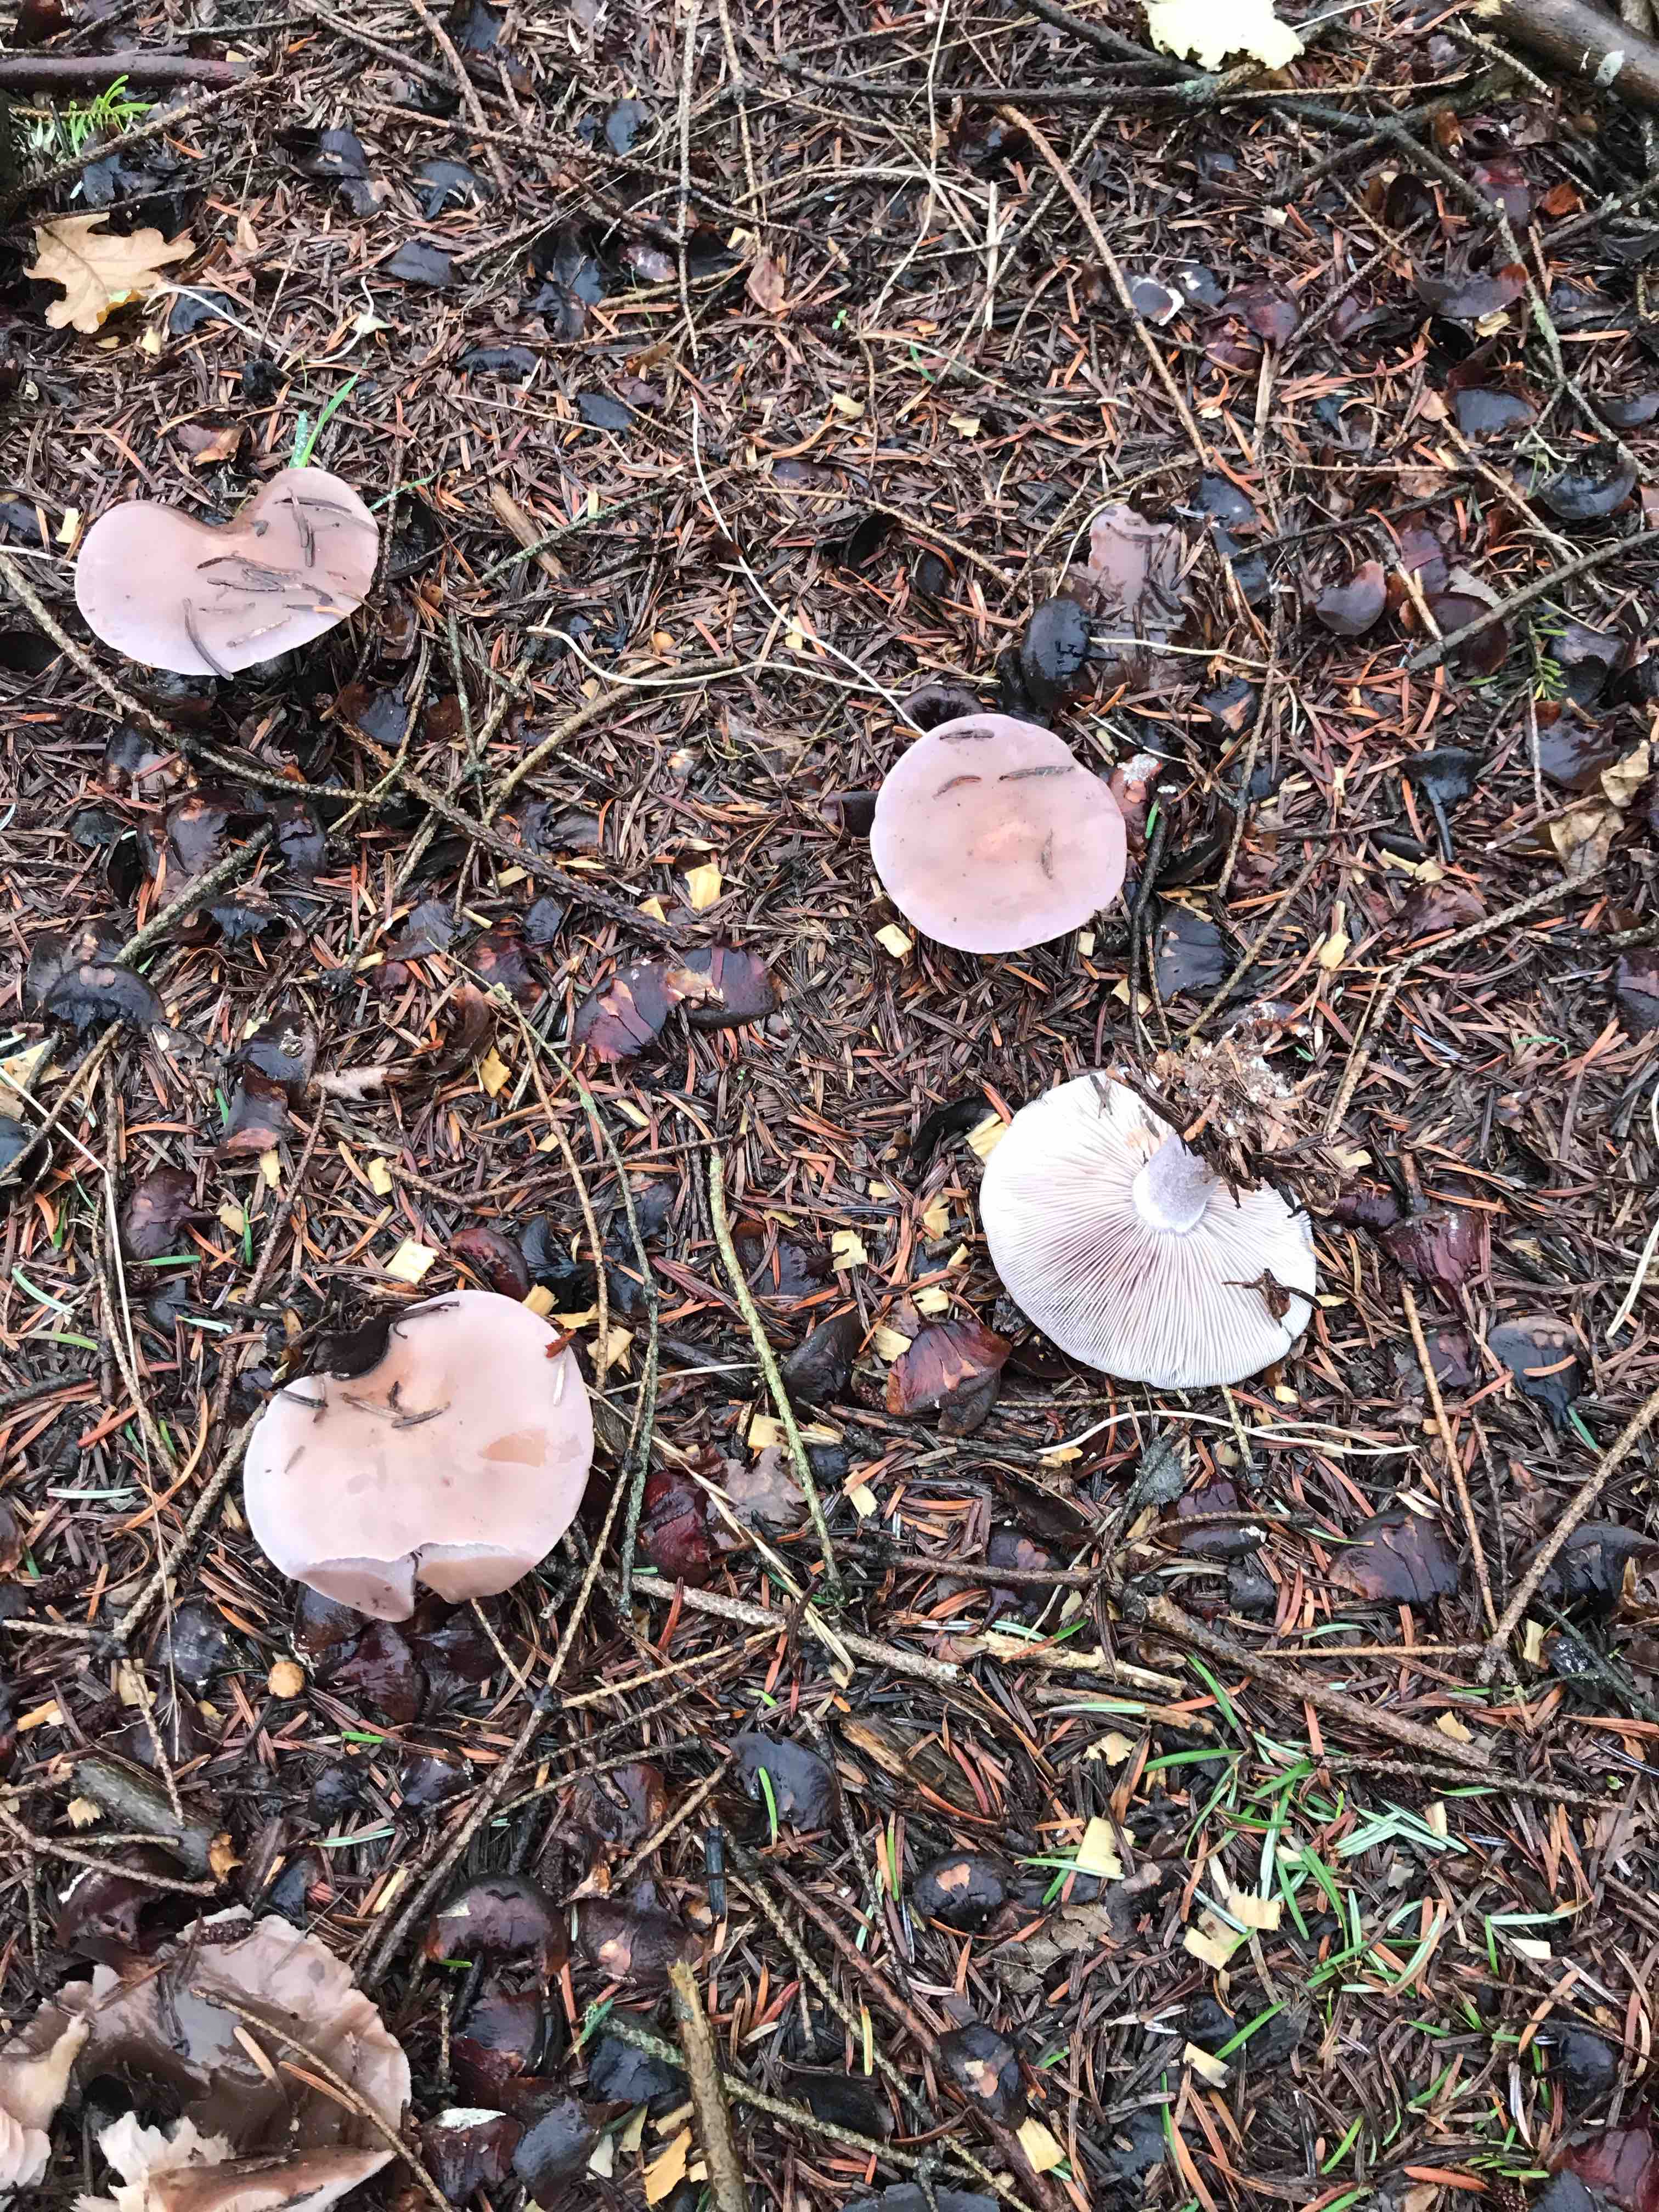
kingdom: Fungi
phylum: Basidiomycota
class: Agaricomycetes
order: Agaricales
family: Tricholomataceae
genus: Lepista
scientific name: Lepista nuda
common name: violet hekseringshat
